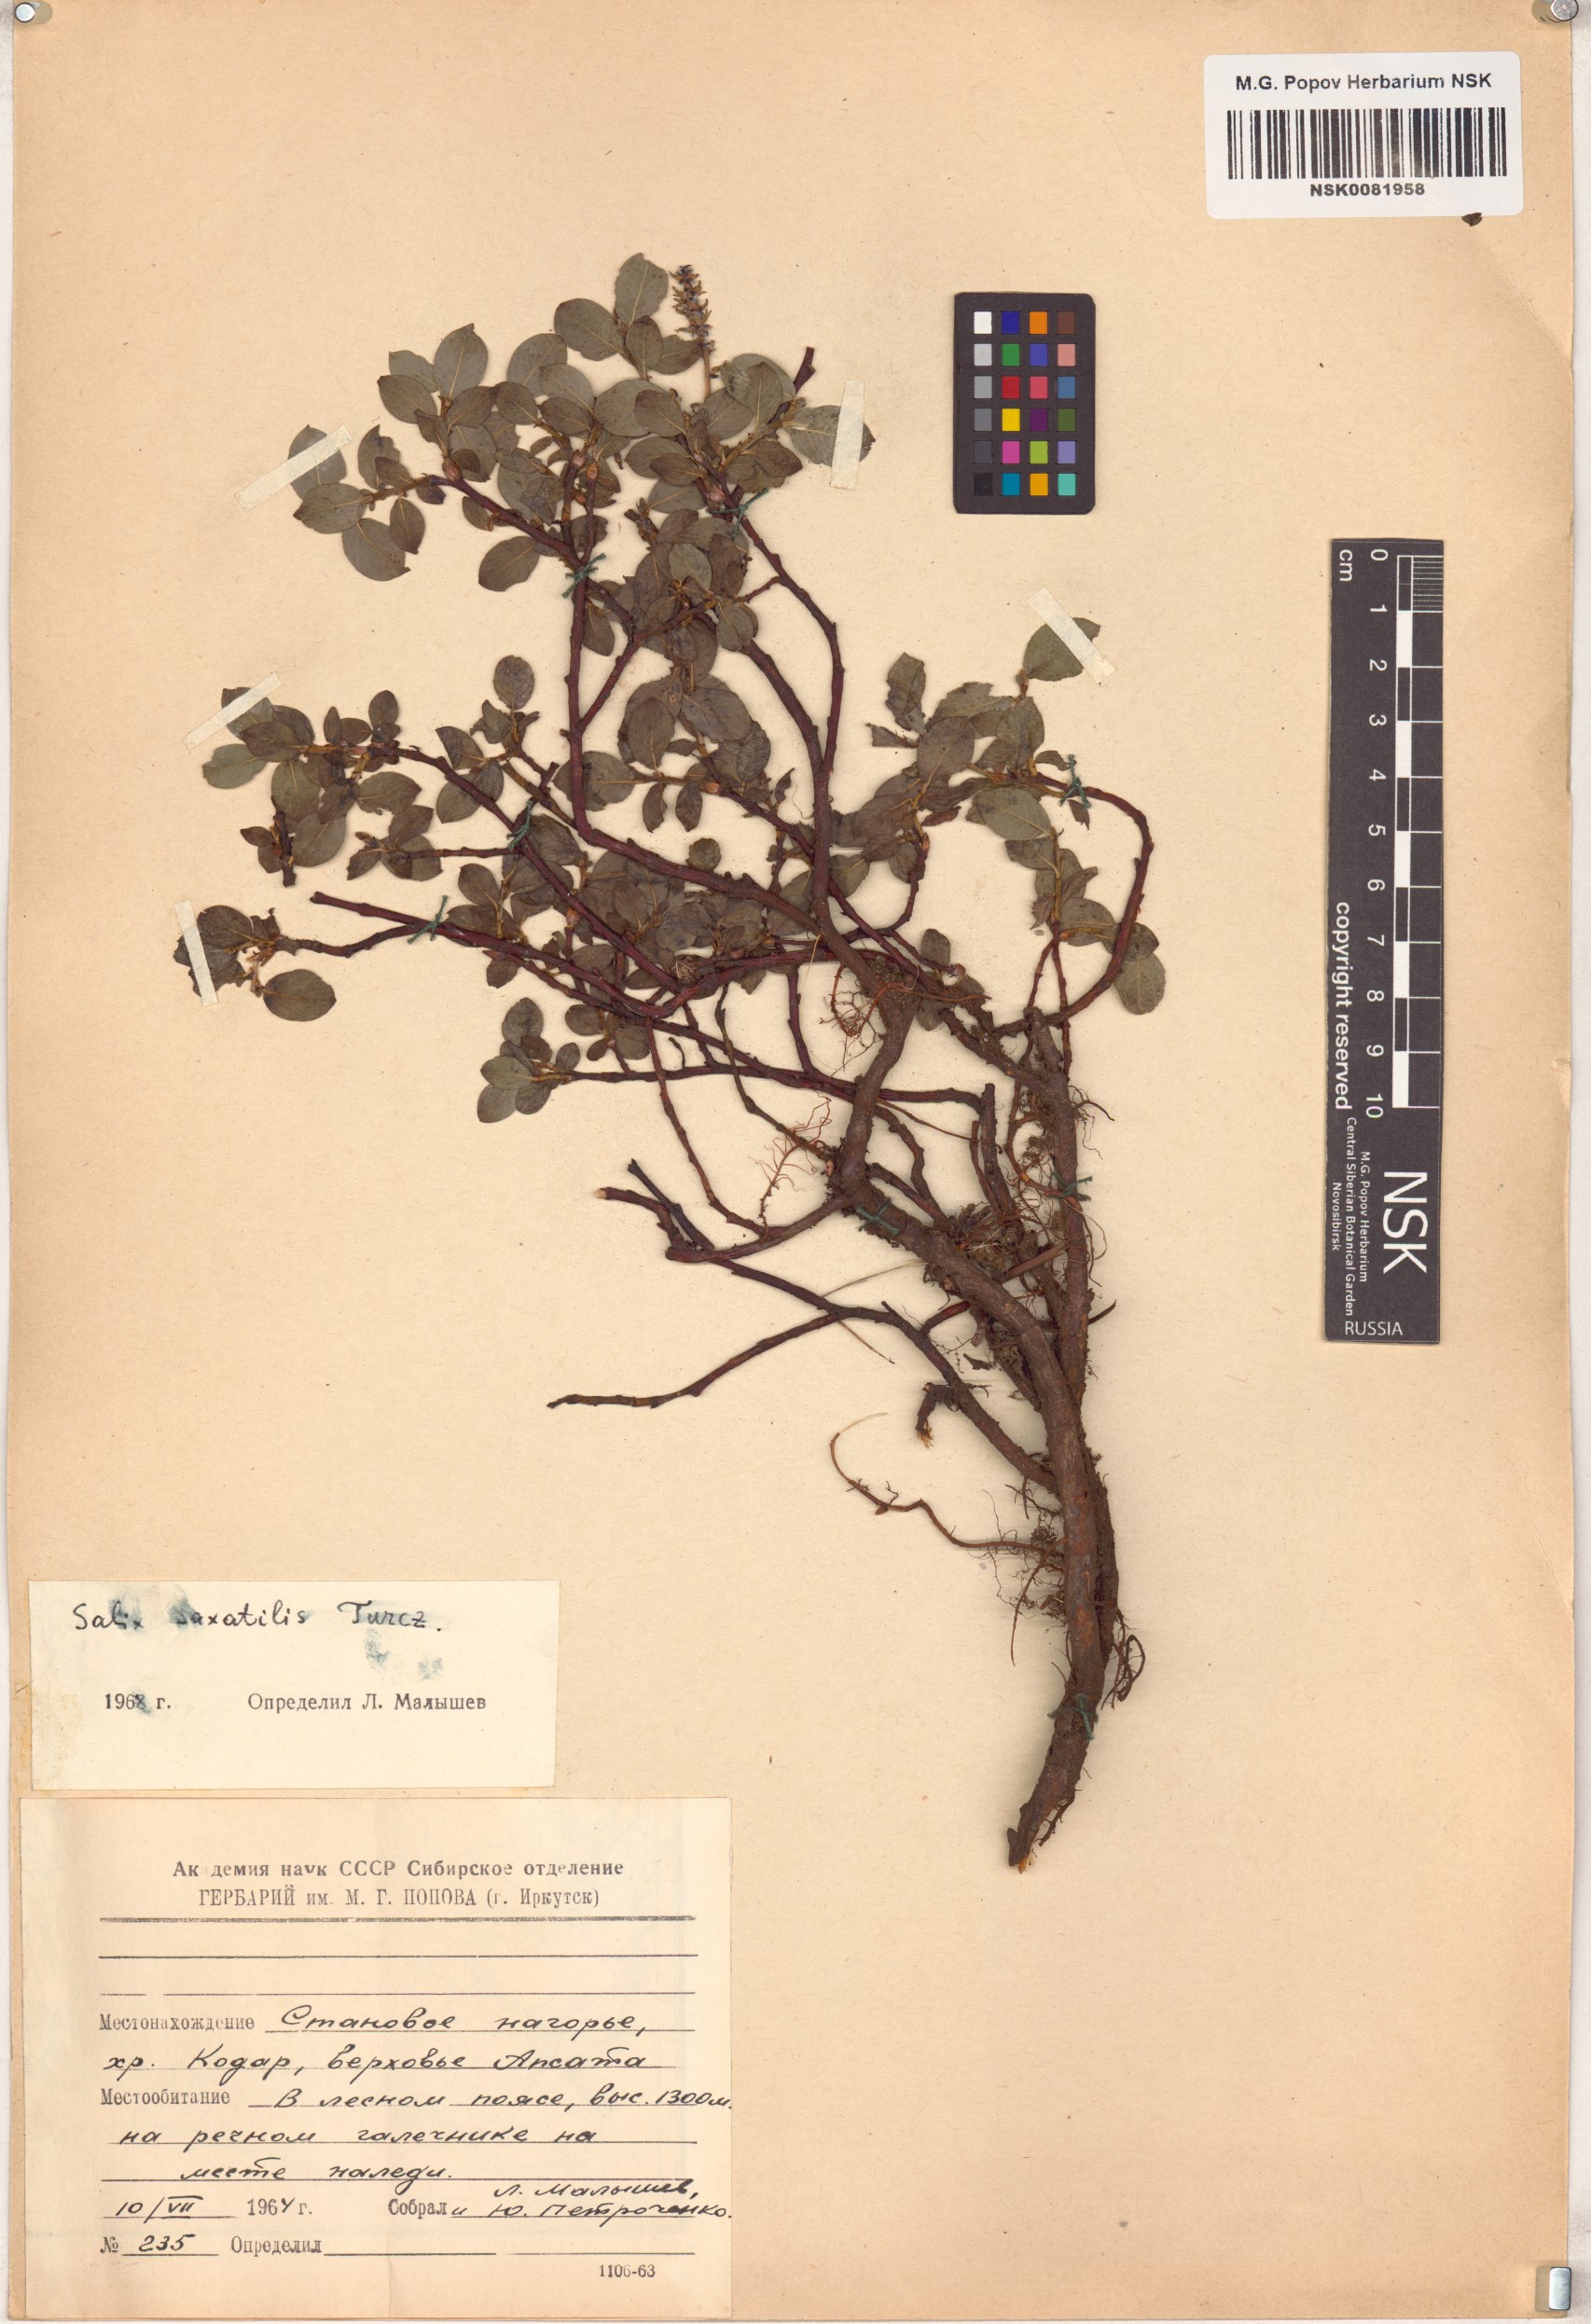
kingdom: Plantae
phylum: Tracheophyta
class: Magnoliopsida
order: Malpighiales
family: Salicaceae
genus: Salix
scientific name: Salix saxatilis
